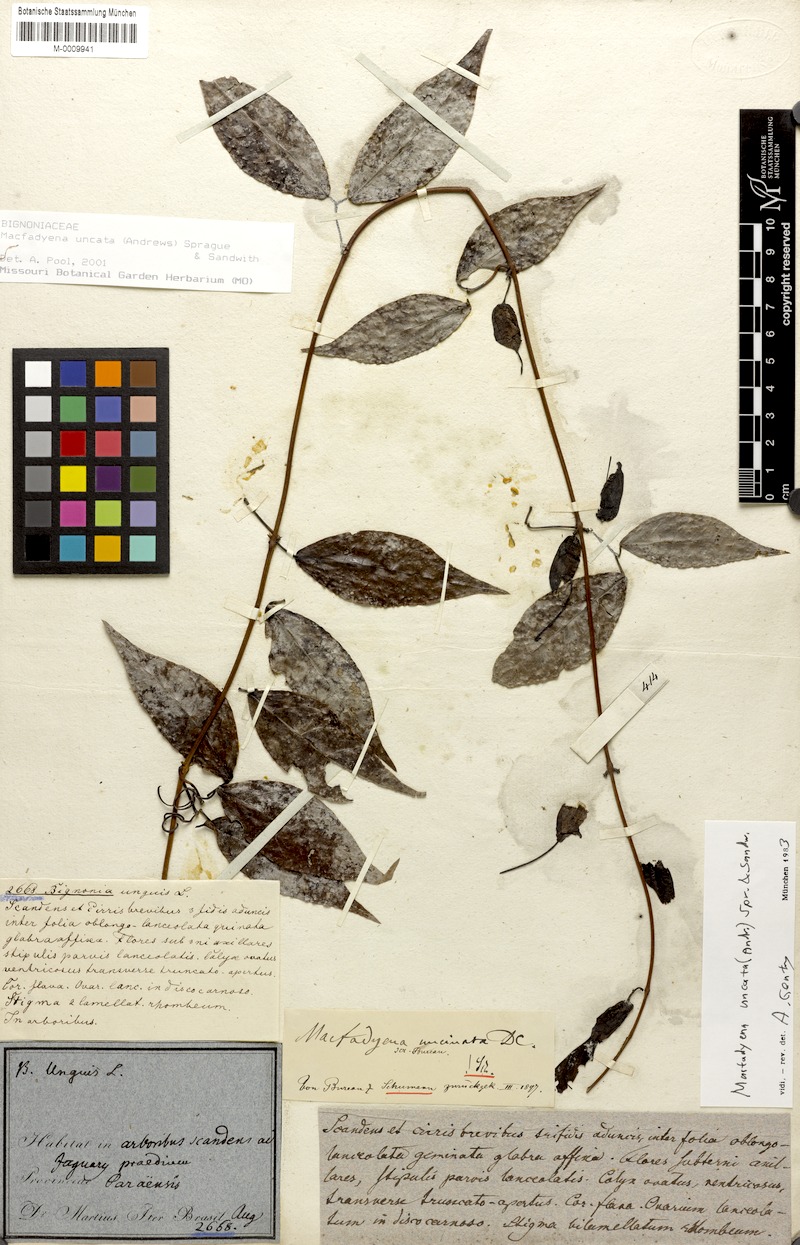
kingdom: Plantae
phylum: Tracheophyta
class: Magnoliopsida
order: Lamiales
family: Bignoniaceae
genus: Dolichandra
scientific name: Dolichandra uncata
